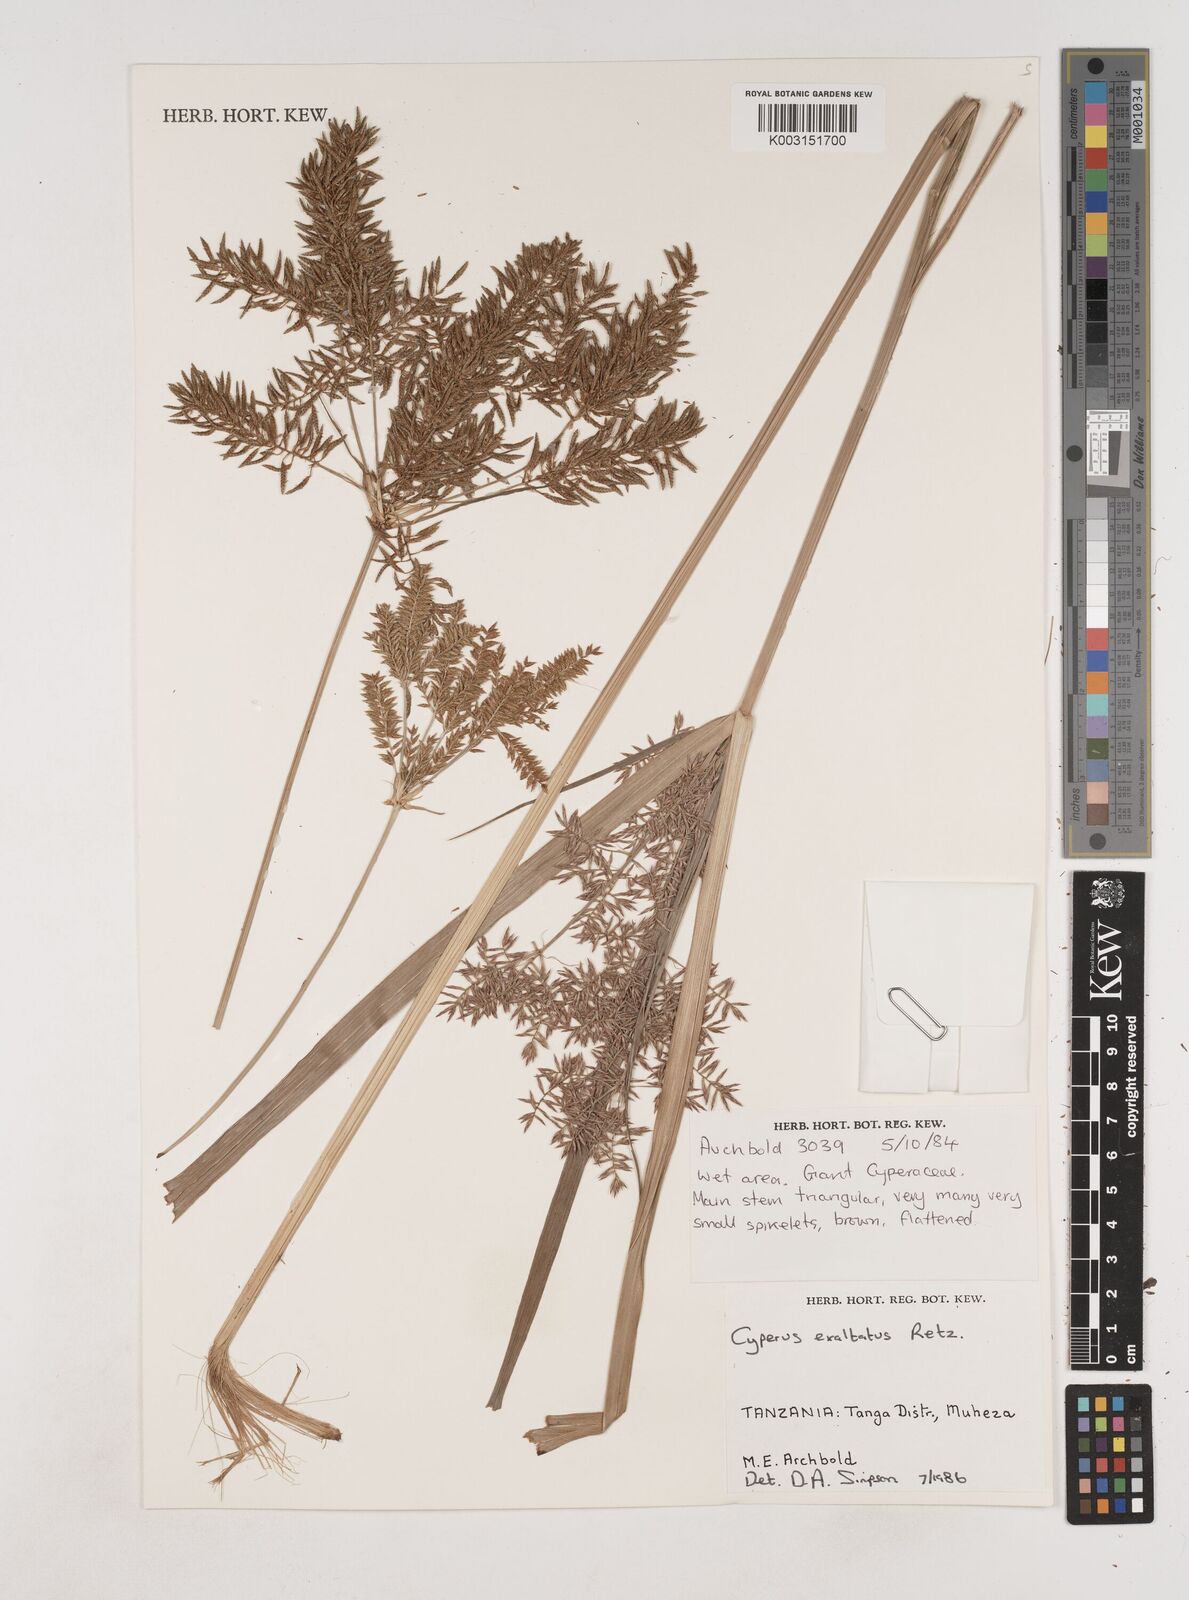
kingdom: Plantae
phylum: Tracheophyta
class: Liliopsida
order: Poales
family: Cyperaceae
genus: Cyperus
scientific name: Cyperus exaltatus
